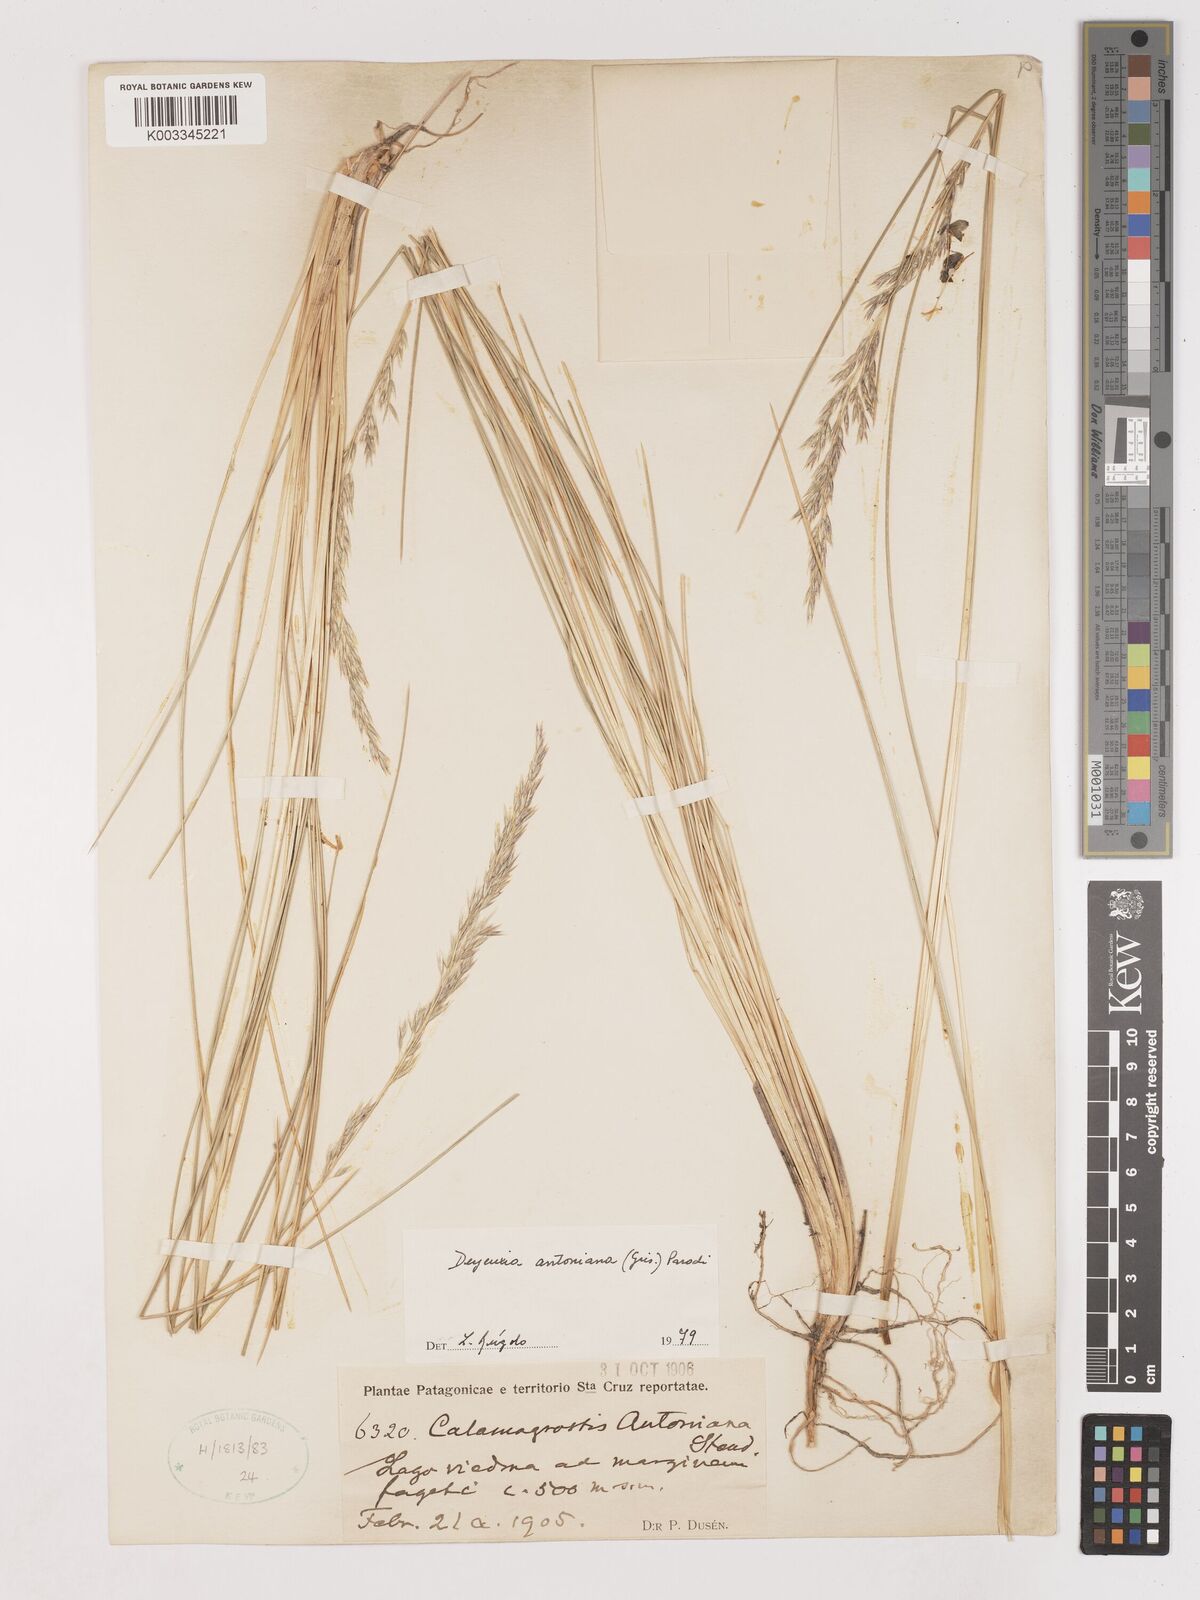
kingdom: Plantae
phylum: Tracheophyta
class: Liliopsida
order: Poales
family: Poaceae
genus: Cinnagrostis
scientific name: Cinnagrostis rigida
